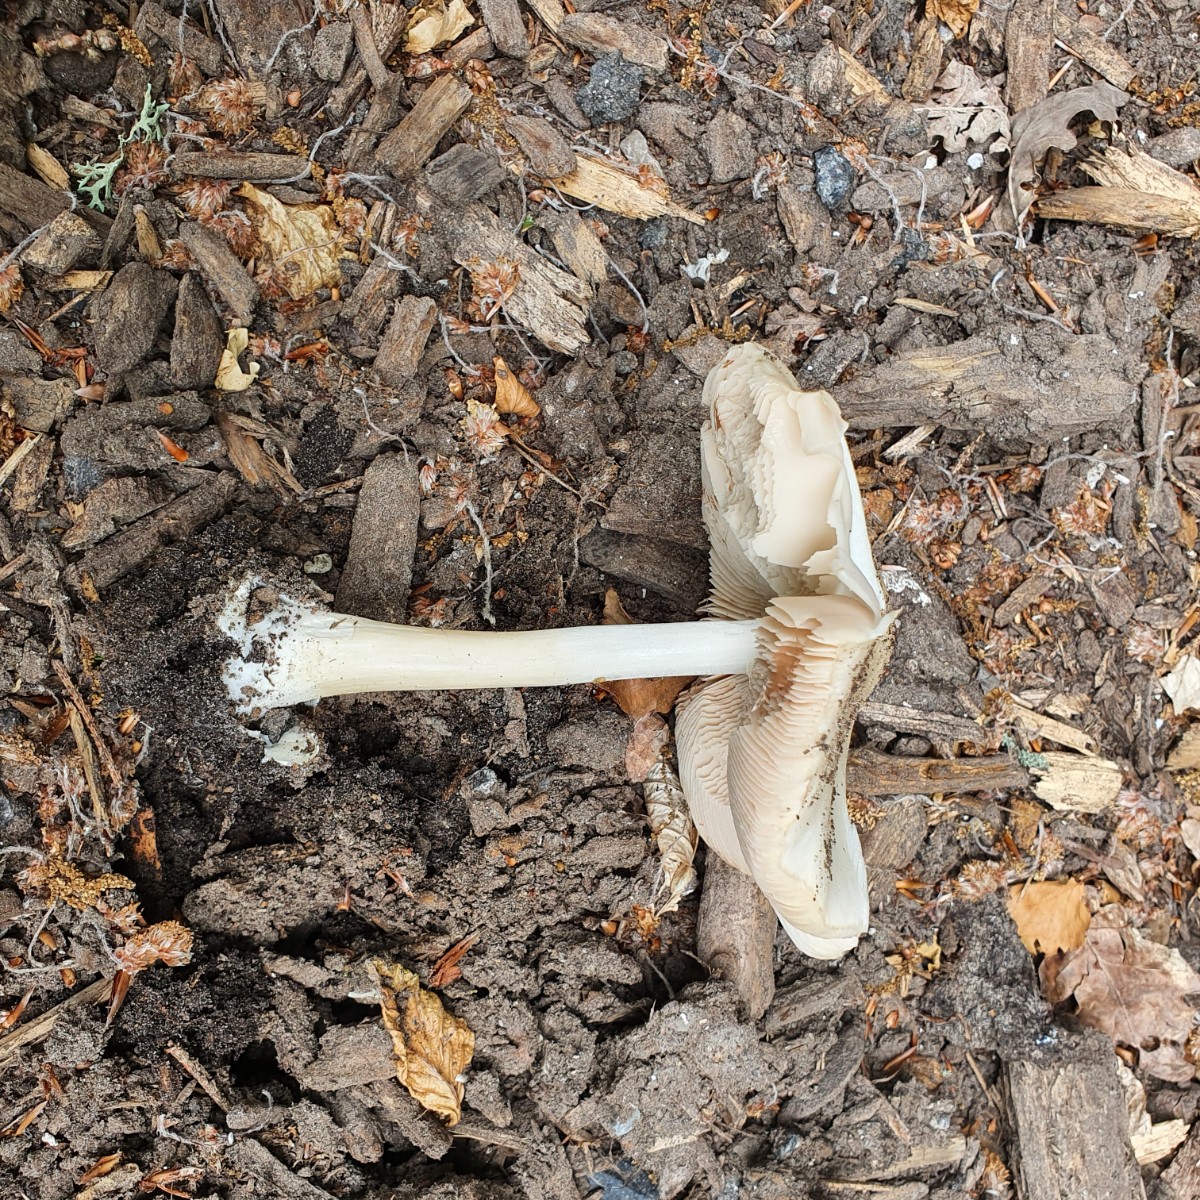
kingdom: Fungi
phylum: Basidiomycota
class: Agaricomycetes
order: Agaricales
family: Pluteaceae
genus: Volvopluteus
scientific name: Volvopluteus gloiocephalus
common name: høj posesvamp
